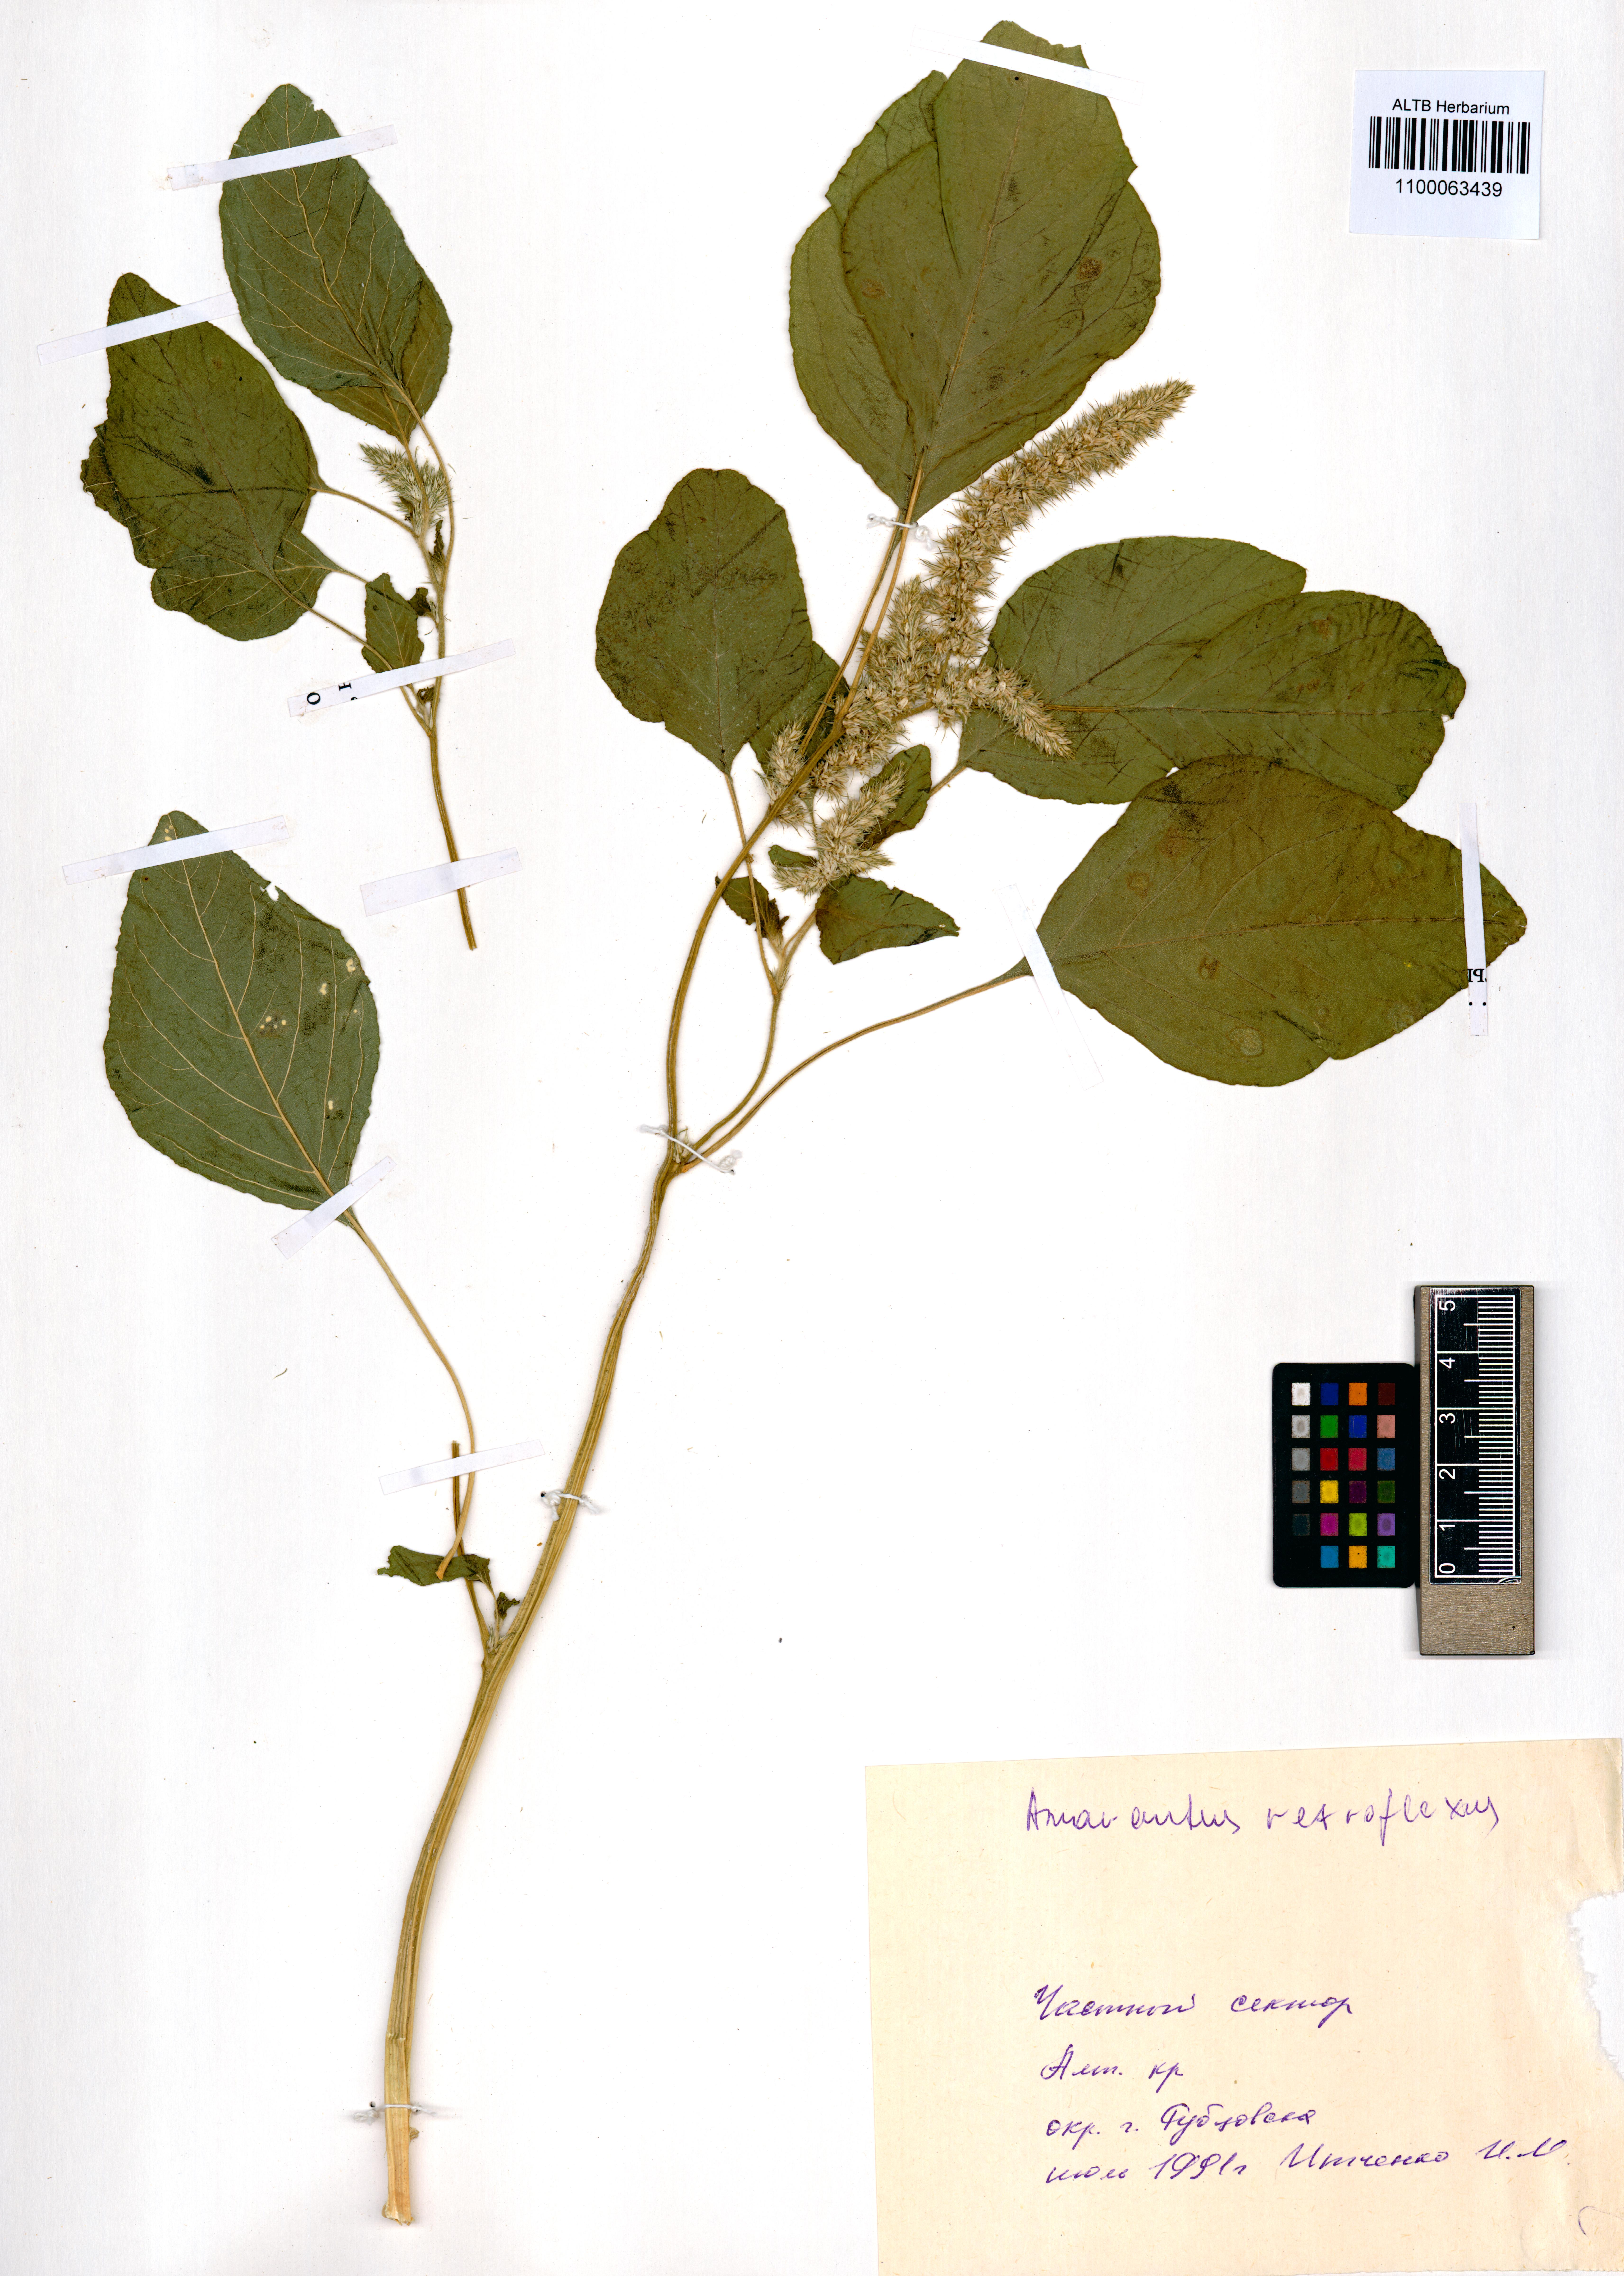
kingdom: Plantae
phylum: Tracheophyta
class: Magnoliopsida
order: Caryophyllales
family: Amaranthaceae
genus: Amaranthus
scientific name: Amaranthus retroflexus
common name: Redroot amaranth
